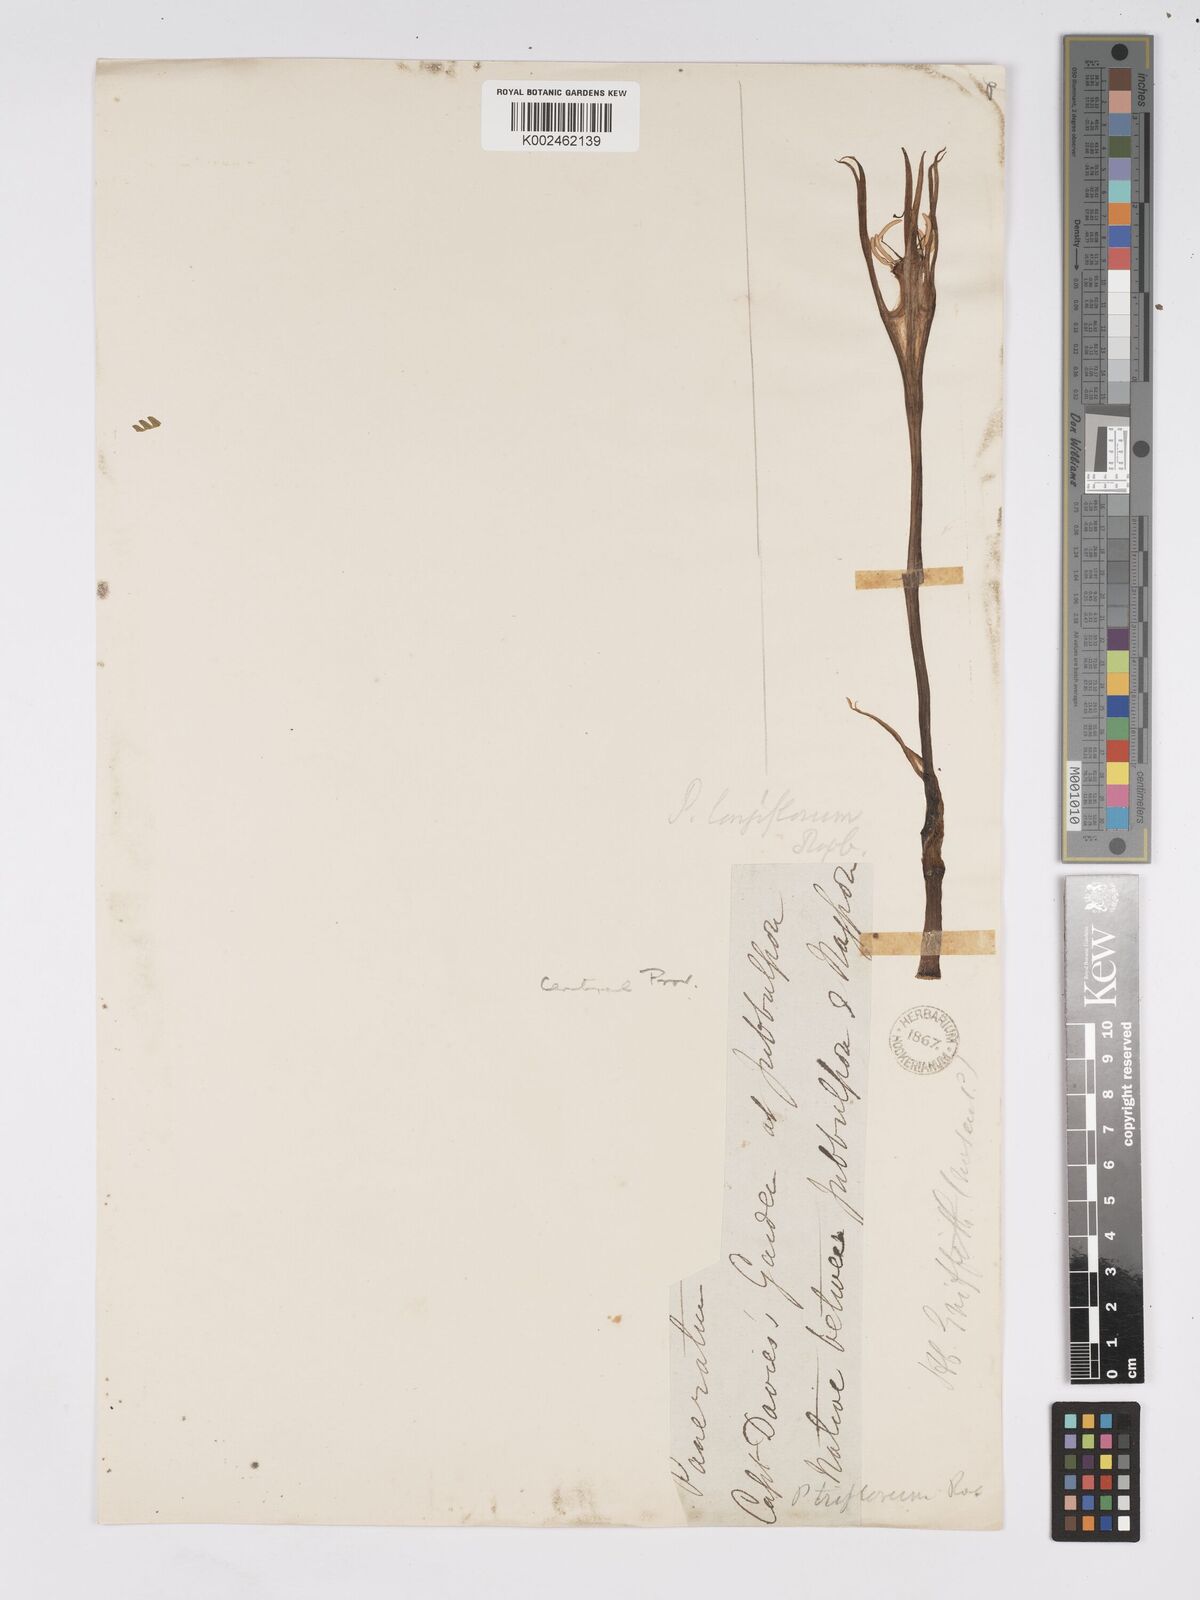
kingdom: Plantae
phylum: Tracheophyta
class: Liliopsida
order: Asparagales
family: Amaryllidaceae
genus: Pancratium
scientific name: Pancratium longiflorum
